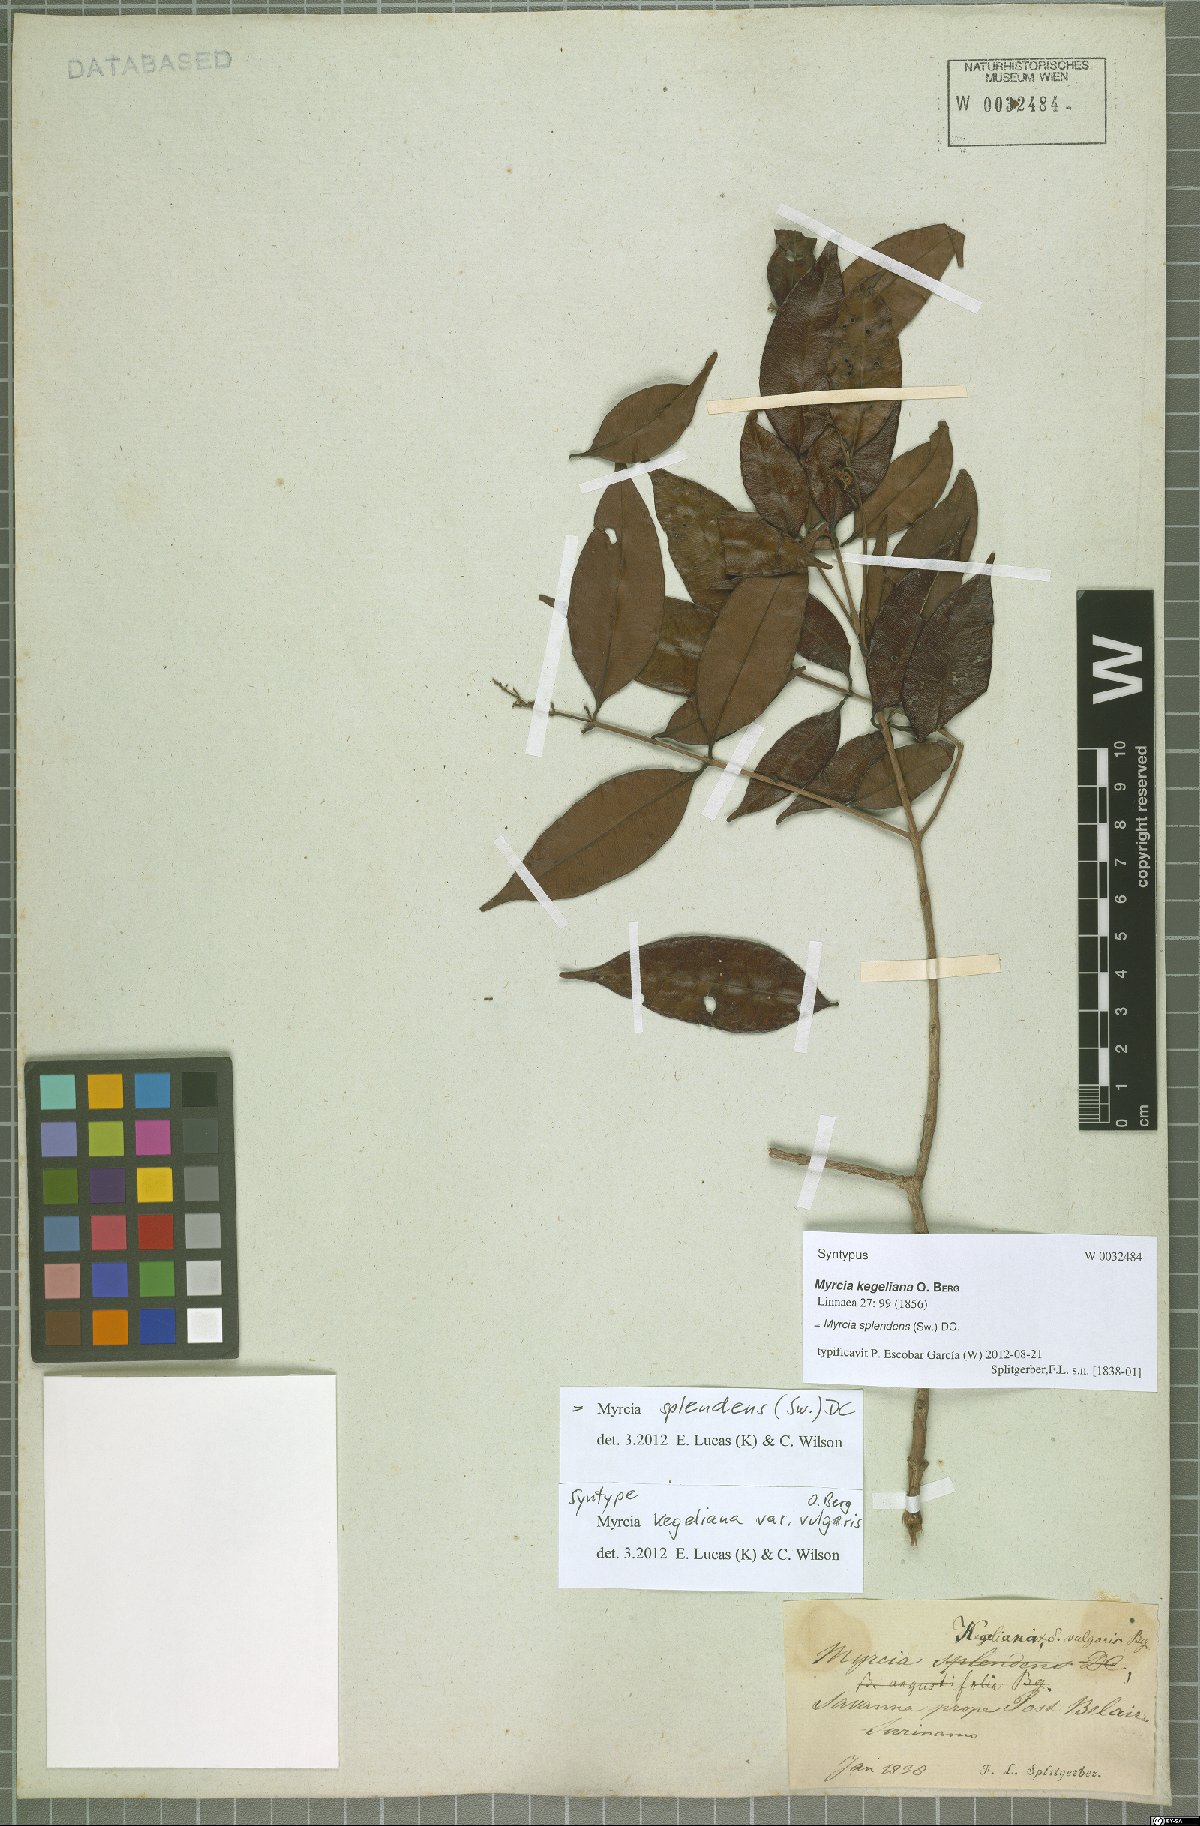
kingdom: Plantae
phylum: Tracheophyta
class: Magnoliopsida
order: Myrtales
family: Myrtaceae
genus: Myrcia
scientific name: Myrcia splendens
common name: Surinam cherry
